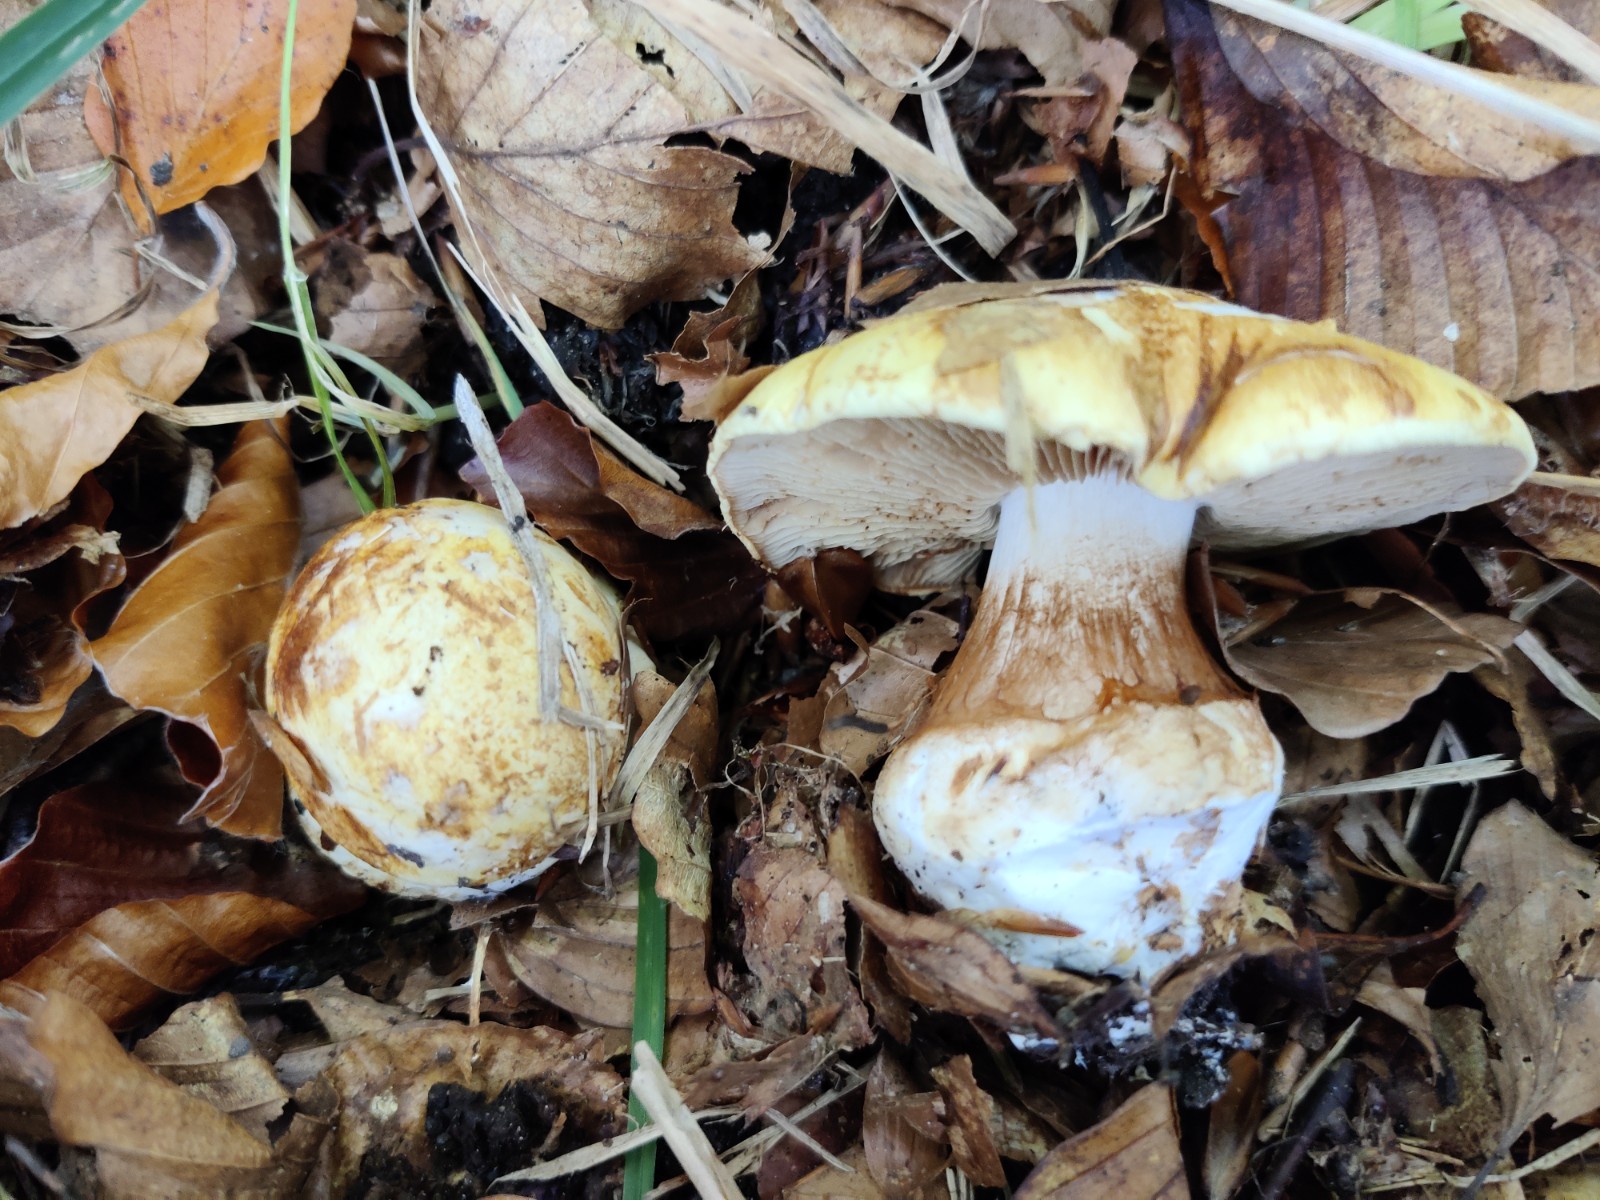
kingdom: Fungi
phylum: Basidiomycota
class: Agaricomycetes
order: Agaricales
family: Cortinariaceae
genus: Calonarius
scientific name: Calonarius osmophorus
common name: duft-slørhat
